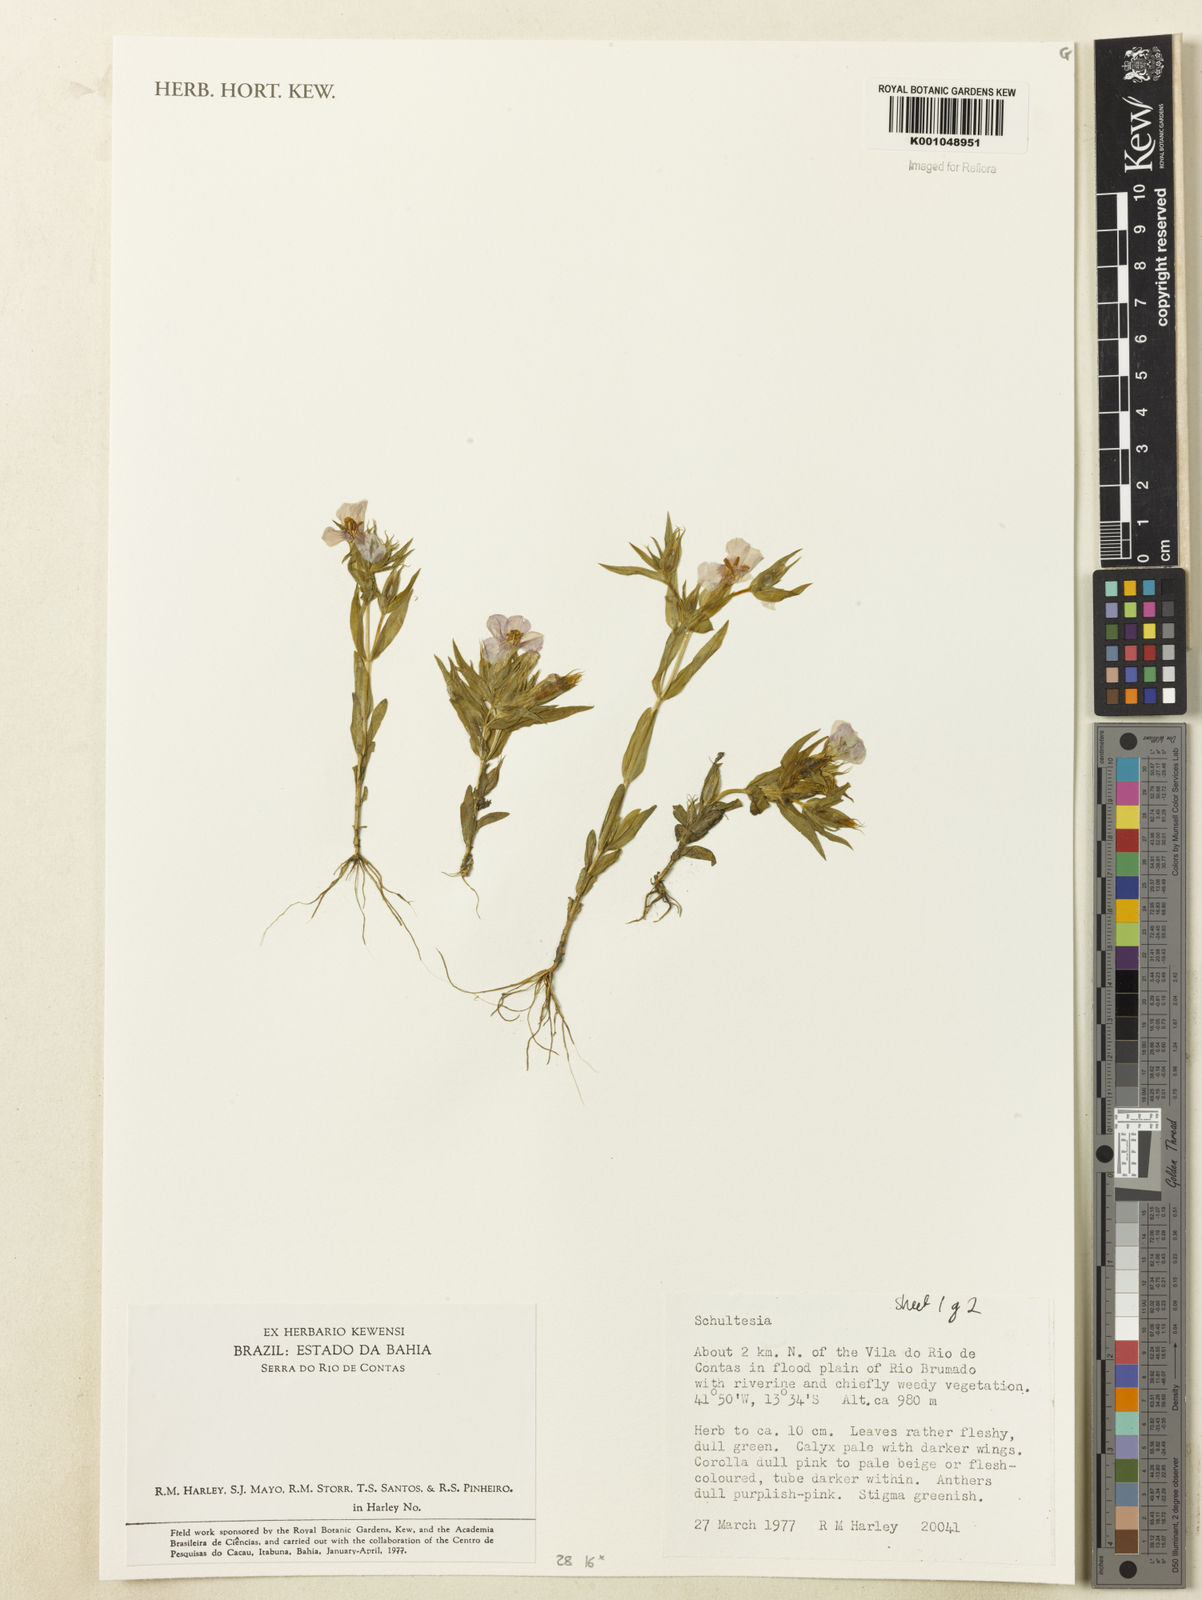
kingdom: Plantae
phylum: Tracheophyta
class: Magnoliopsida
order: Gentianales
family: Gentianaceae
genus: Schultesia
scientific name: Schultesia
